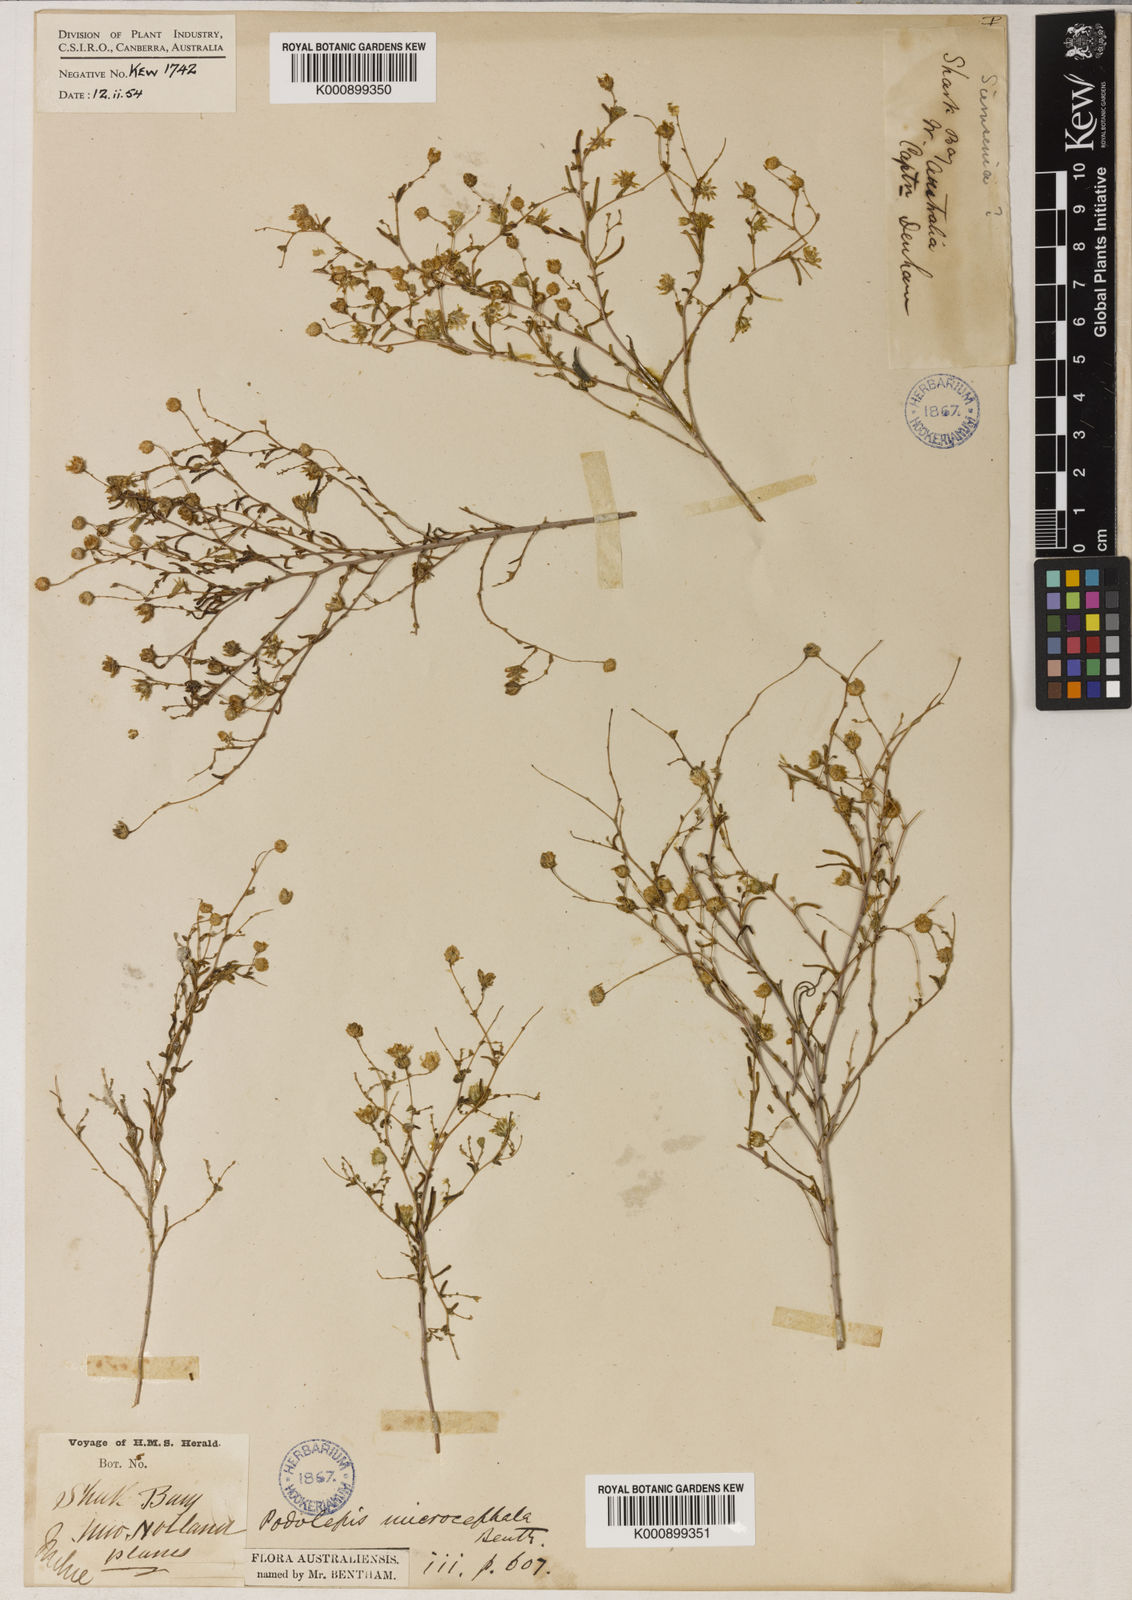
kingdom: Plantae
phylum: Tracheophyta
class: Magnoliopsida
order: Asterales
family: Asteraceae
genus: Siemssenia
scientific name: Siemssenia microcephala
